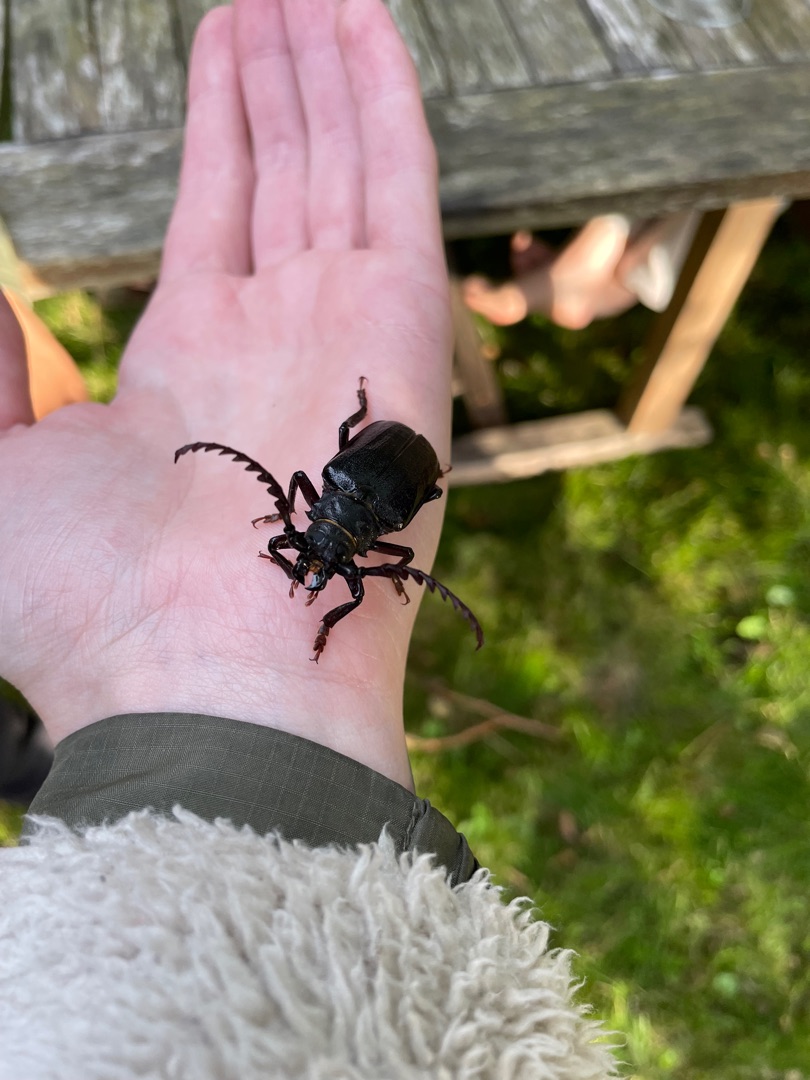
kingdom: Animalia
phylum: Arthropoda
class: Insecta
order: Coleoptera
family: Cerambycidae
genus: Prionus
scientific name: Prionus coriarius
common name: Garver
